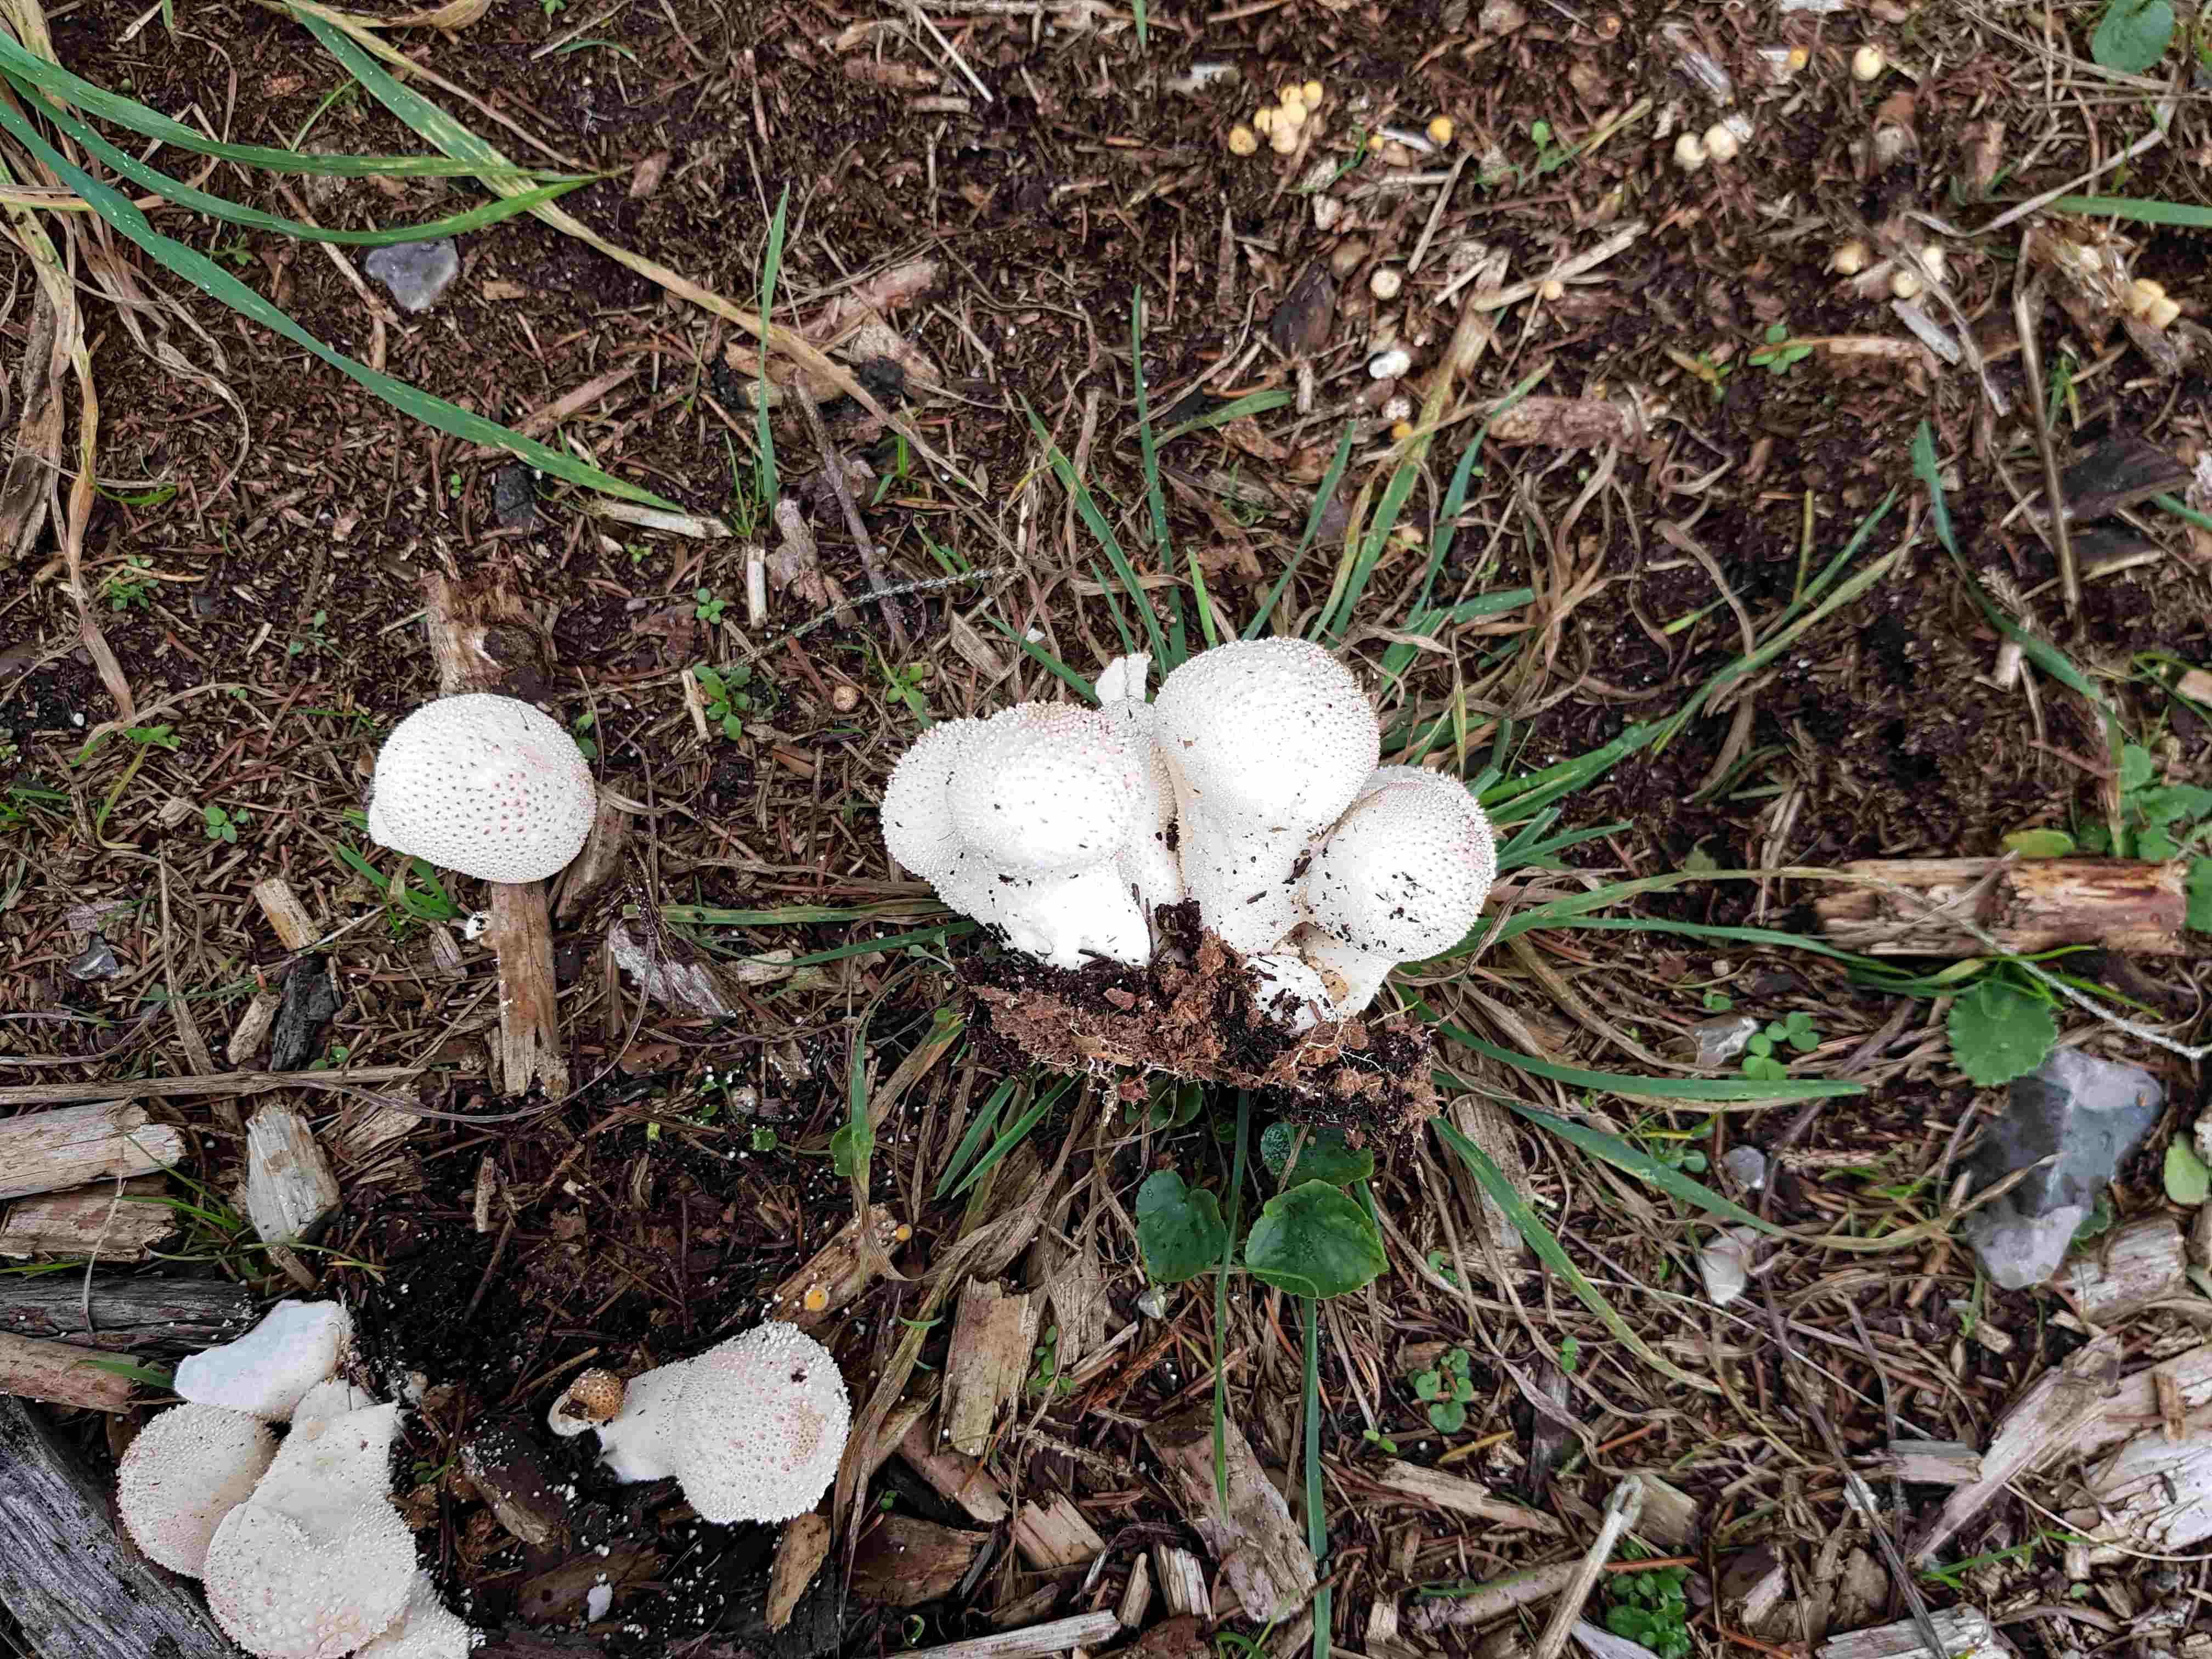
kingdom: Fungi
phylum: Basidiomycota
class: Agaricomycetes
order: Agaricales
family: Lycoperdaceae
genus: Lycoperdon
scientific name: Lycoperdon perlatum
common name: krystal-støvbold
